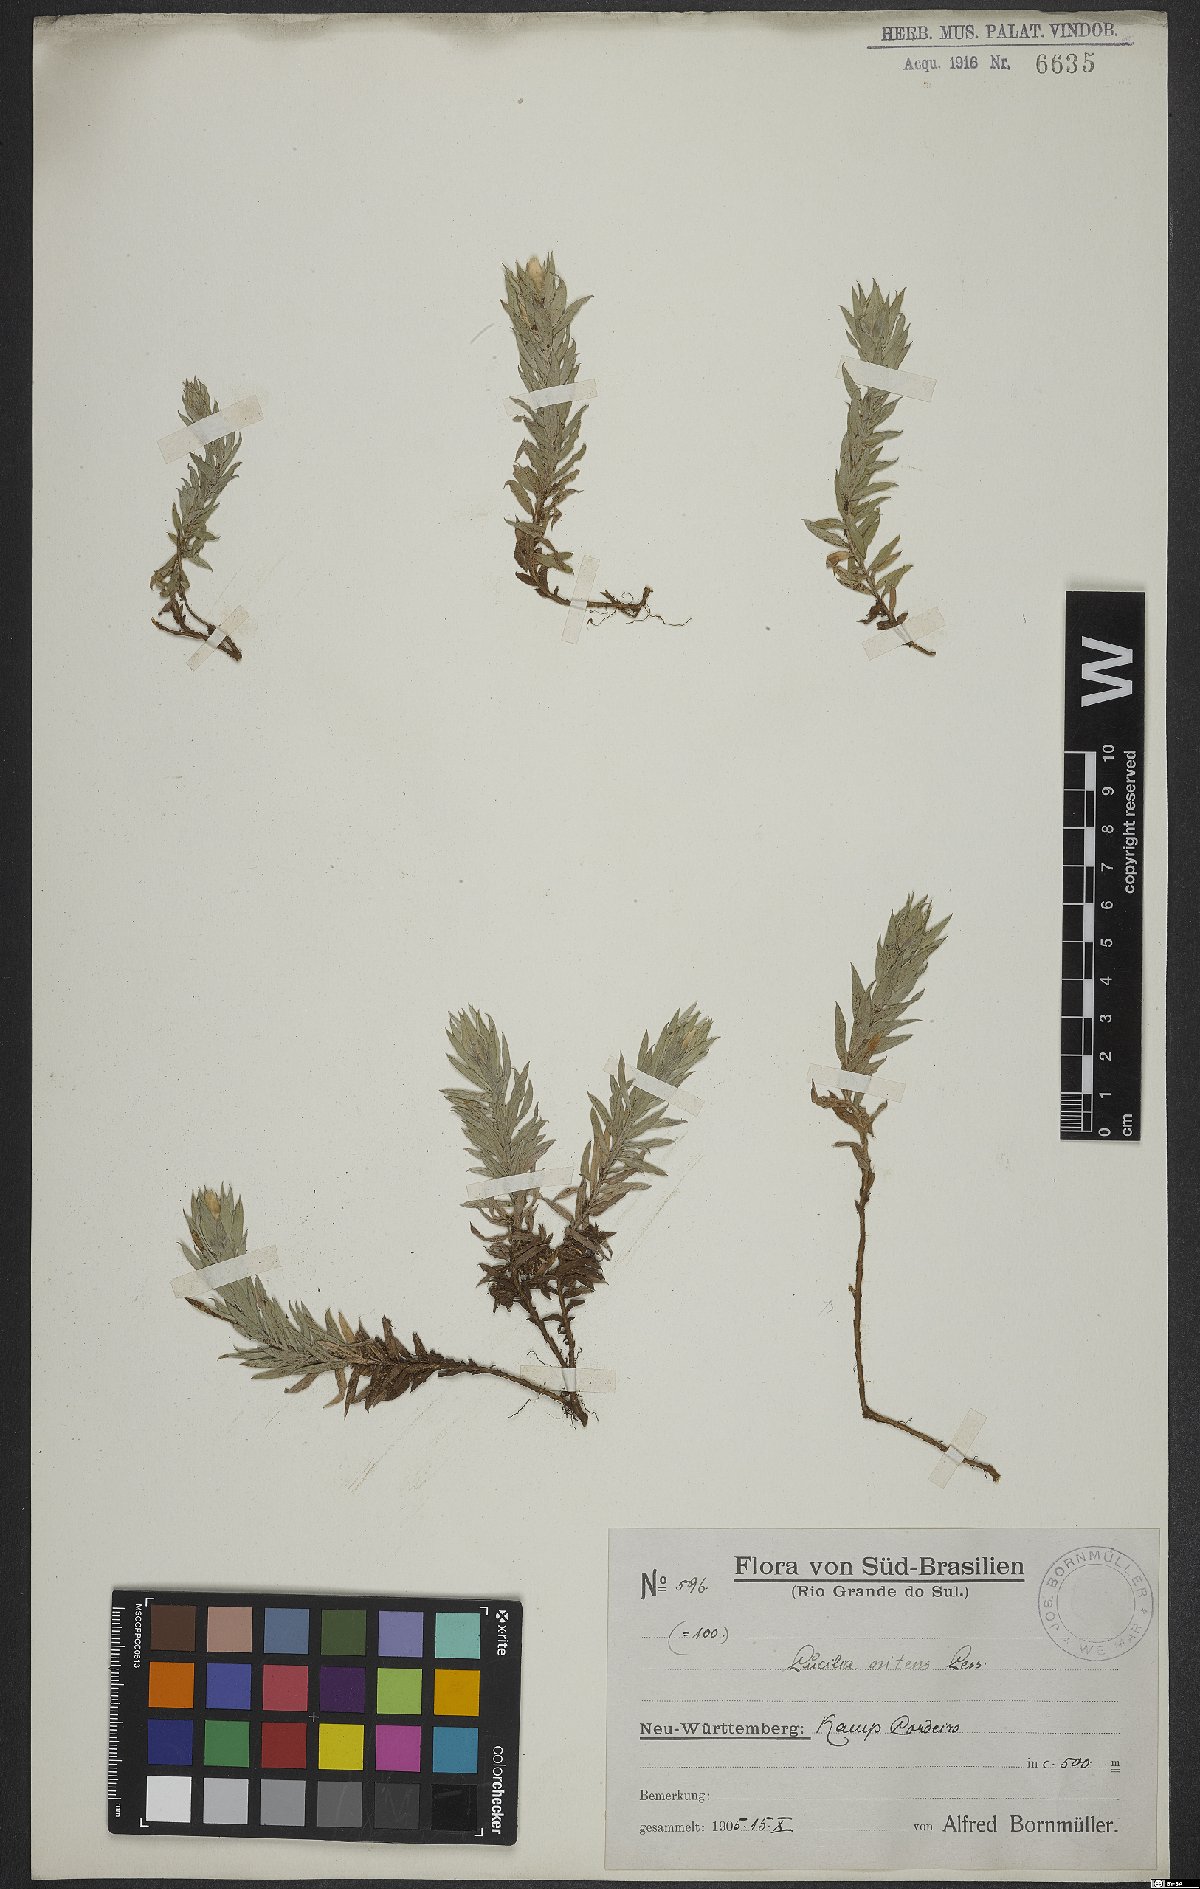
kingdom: Plantae
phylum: Tracheophyta
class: Magnoliopsida
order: Asterales
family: Asteraceae
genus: Lucilia
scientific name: Lucilia nitens
